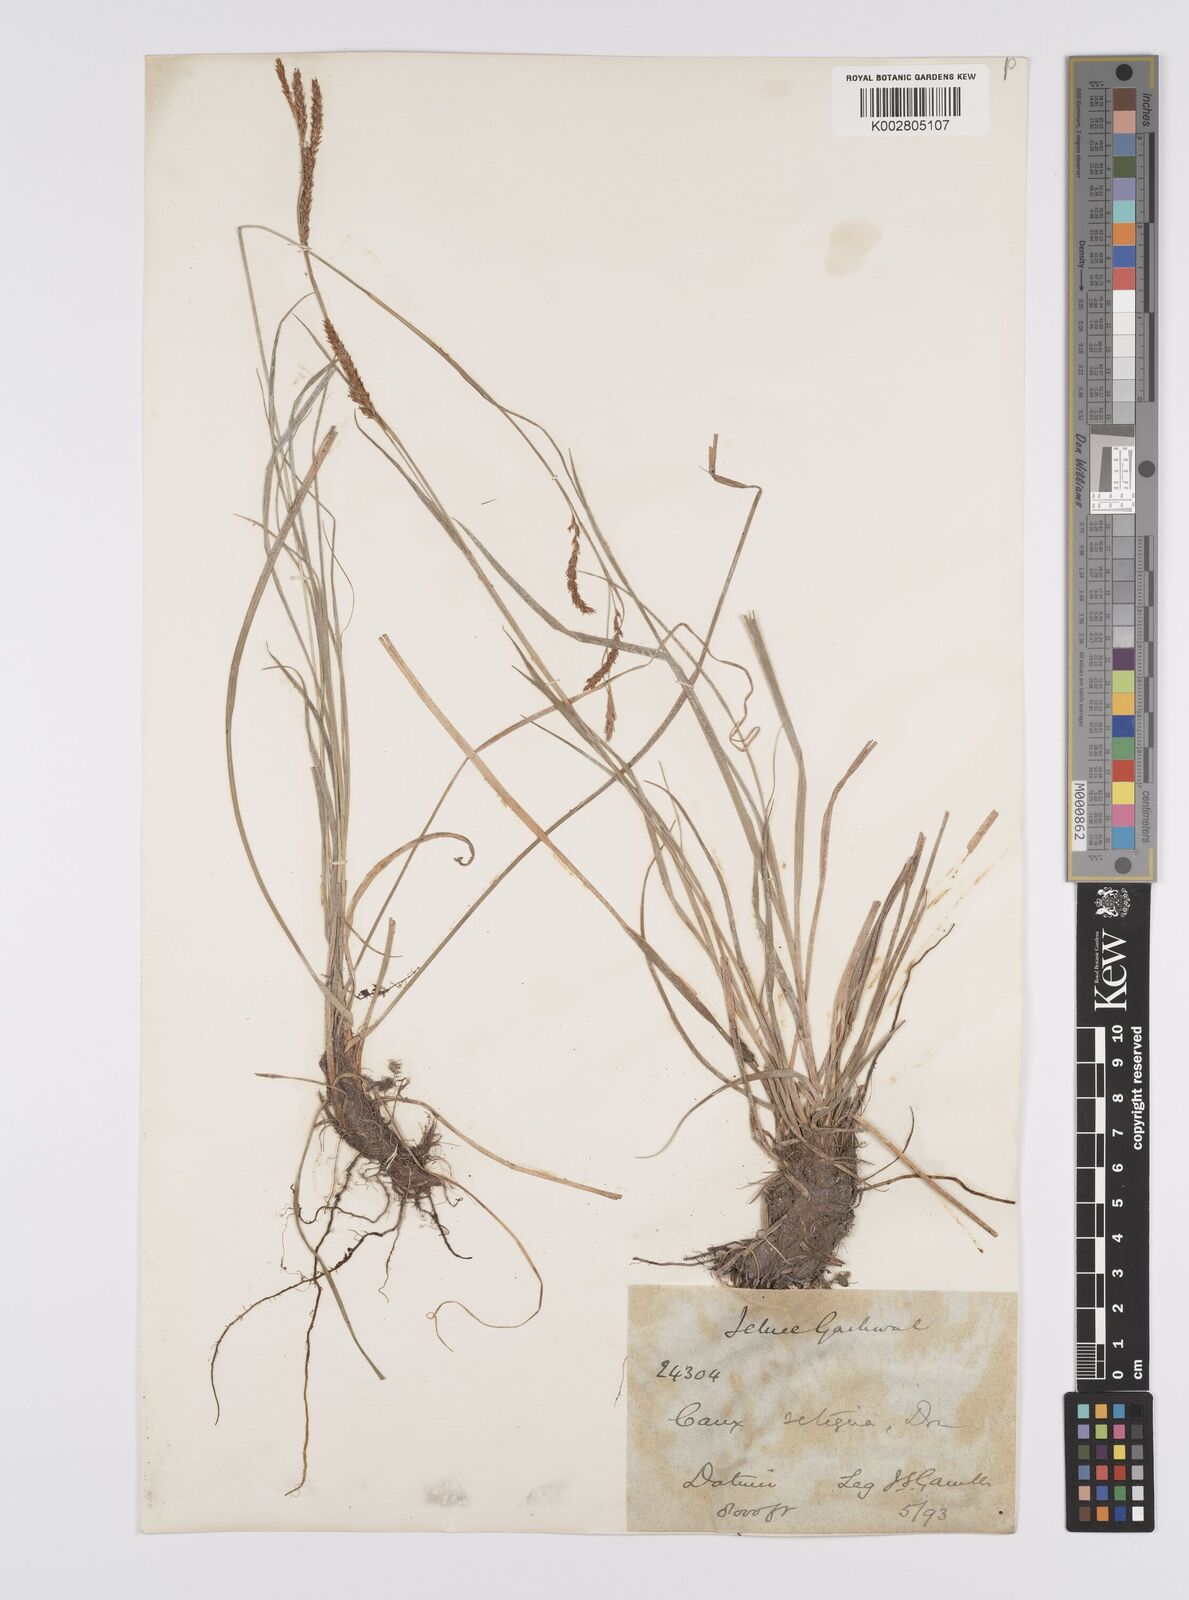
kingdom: Plantae
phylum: Tracheophyta
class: Liliopsida
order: Poales
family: Cyperaceae
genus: Carex
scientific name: Carex setosa
